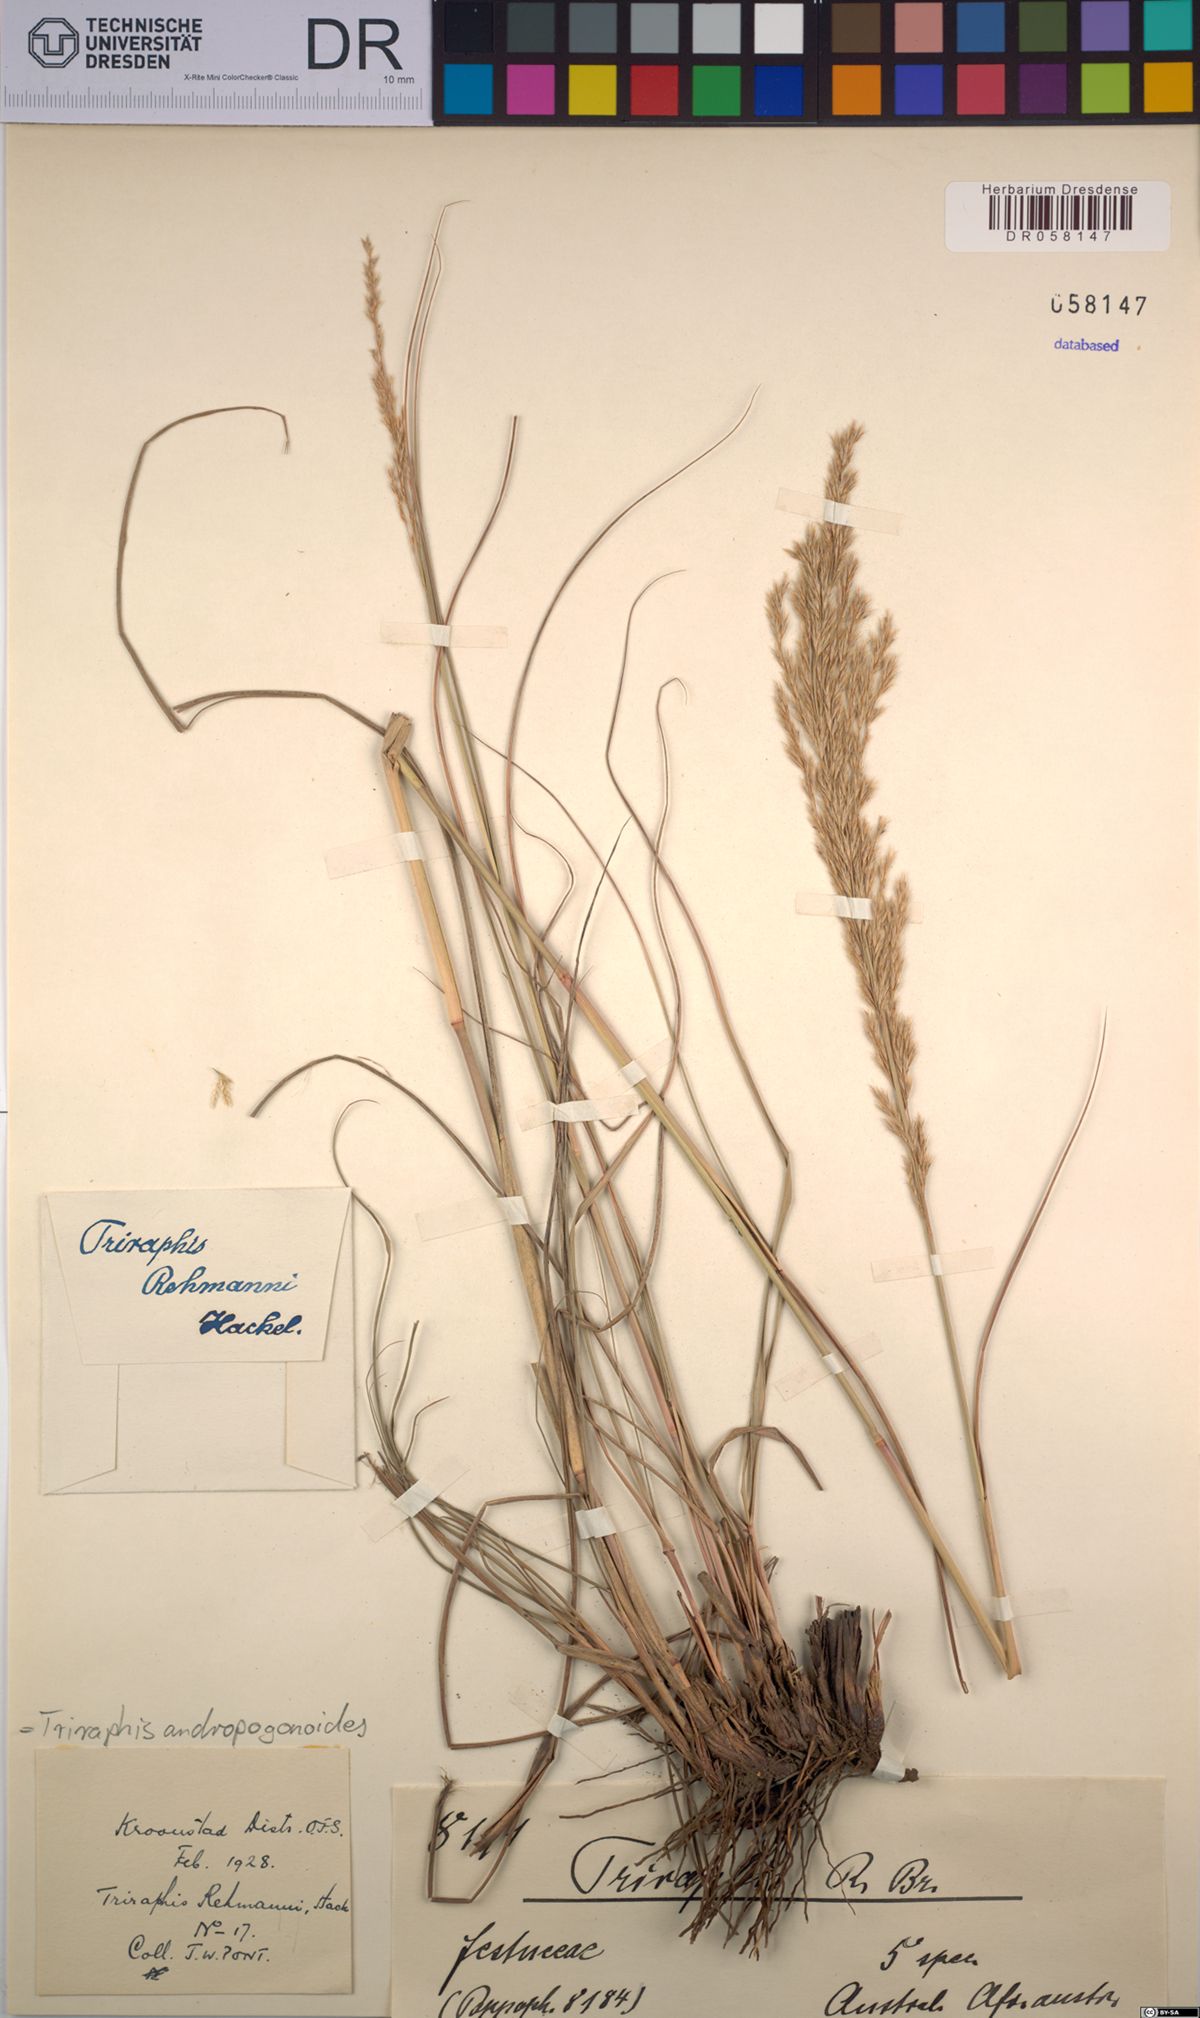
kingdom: Plantae
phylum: Tracheophyta
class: Liliopsida
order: Poales
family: Poaceae
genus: Triraphis
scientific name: Triraphis andropogonoides
